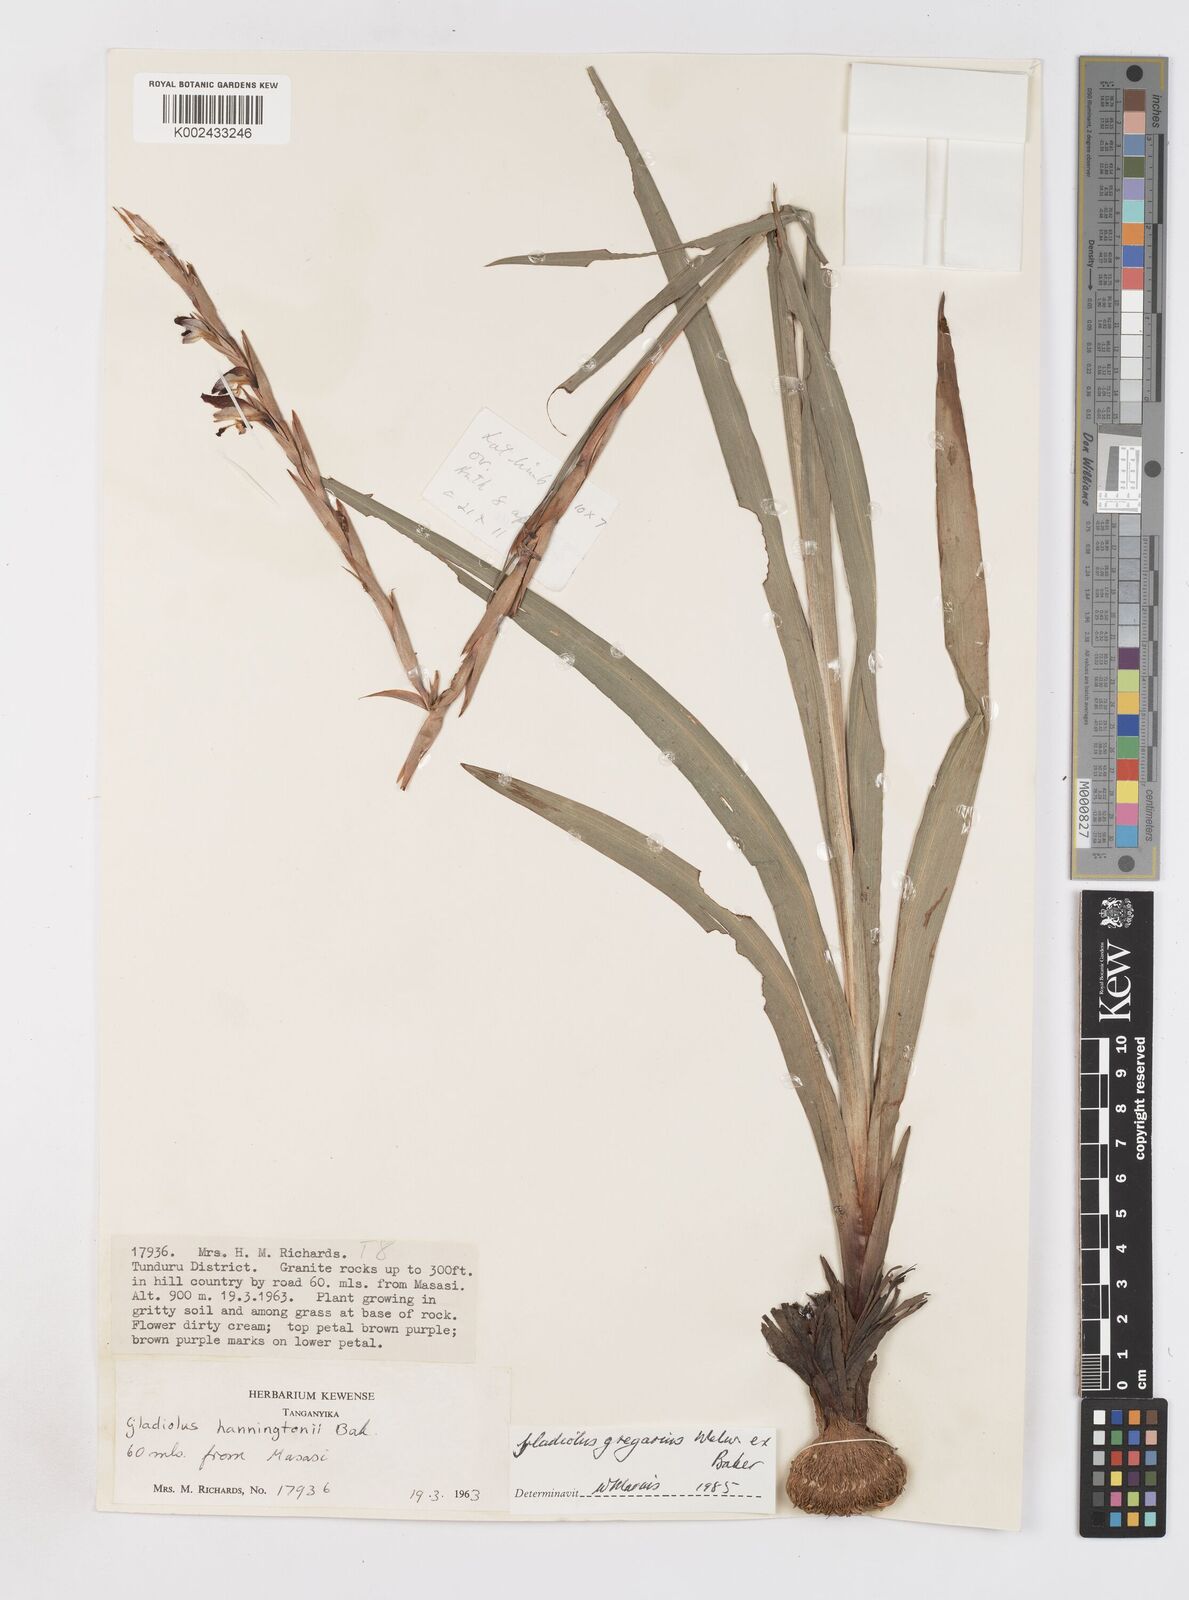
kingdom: Plantae
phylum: Tracheophyta
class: Liliopsida
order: Asparagales
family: Iridaceae
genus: Gladiolus
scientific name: Gladiolus gregarius
